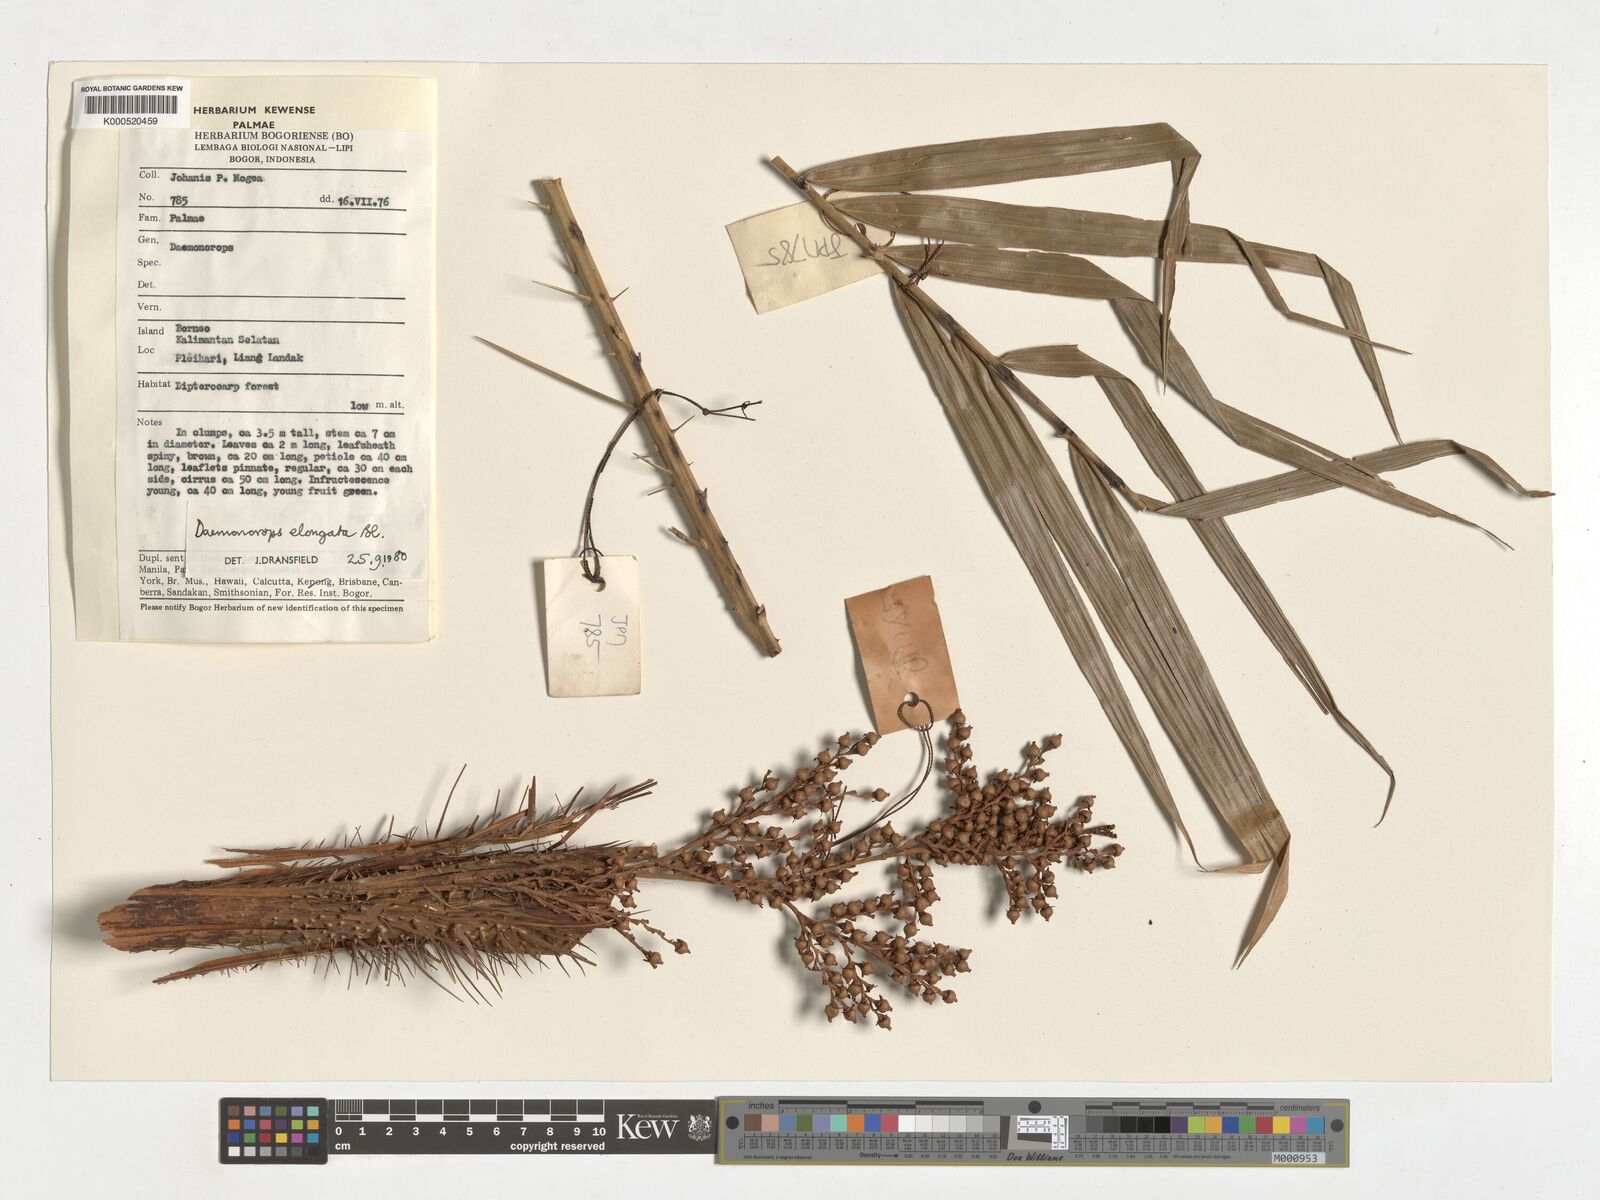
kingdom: Plantae
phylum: Tracheophyta
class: Liliopsida
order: Arecales
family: Arecaceae
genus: Calamus
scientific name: Calamus oblongus
